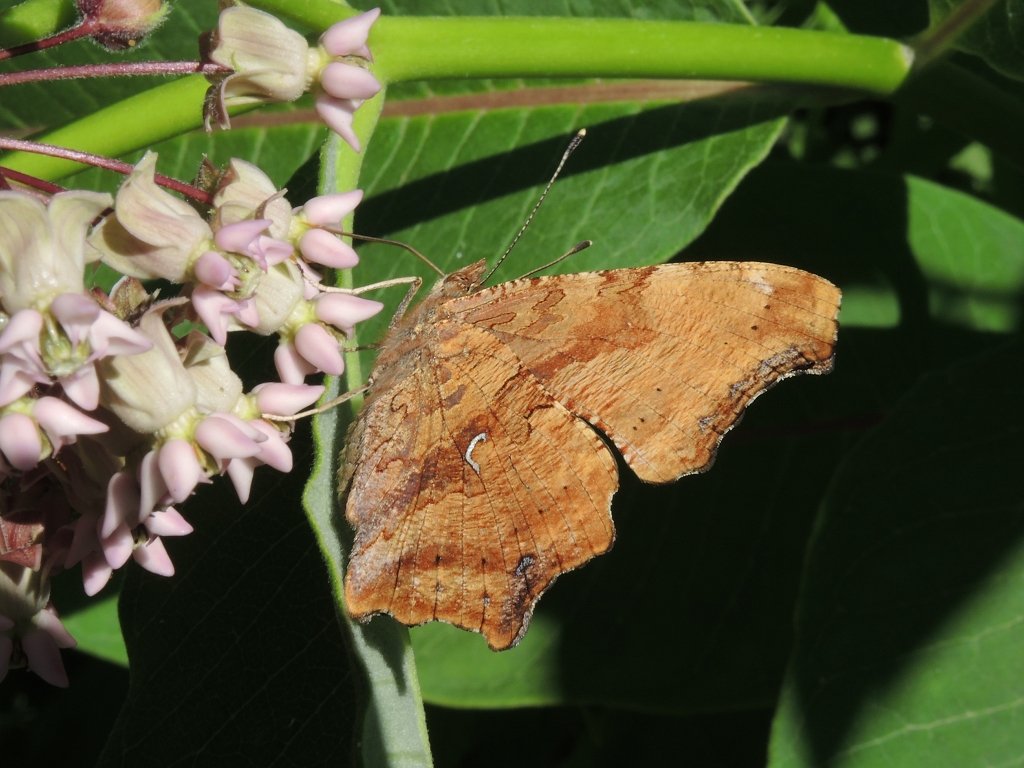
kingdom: Animalia
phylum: Arthropoda
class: Insecta
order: Lepidoptera
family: Nymphalidae
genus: Polygonia
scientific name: Polygonia comma
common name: Eastern Comma
